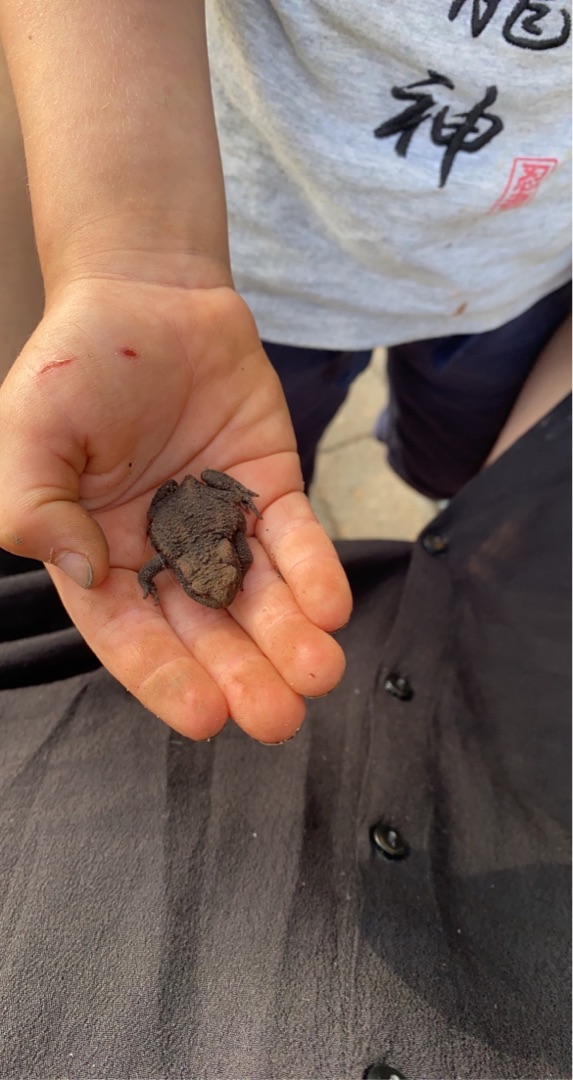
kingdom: Animalia
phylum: Chordata
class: Amphibia
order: Anura
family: Bufonidae
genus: Bufo
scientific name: Bufo bufo
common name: Skrubtudse
